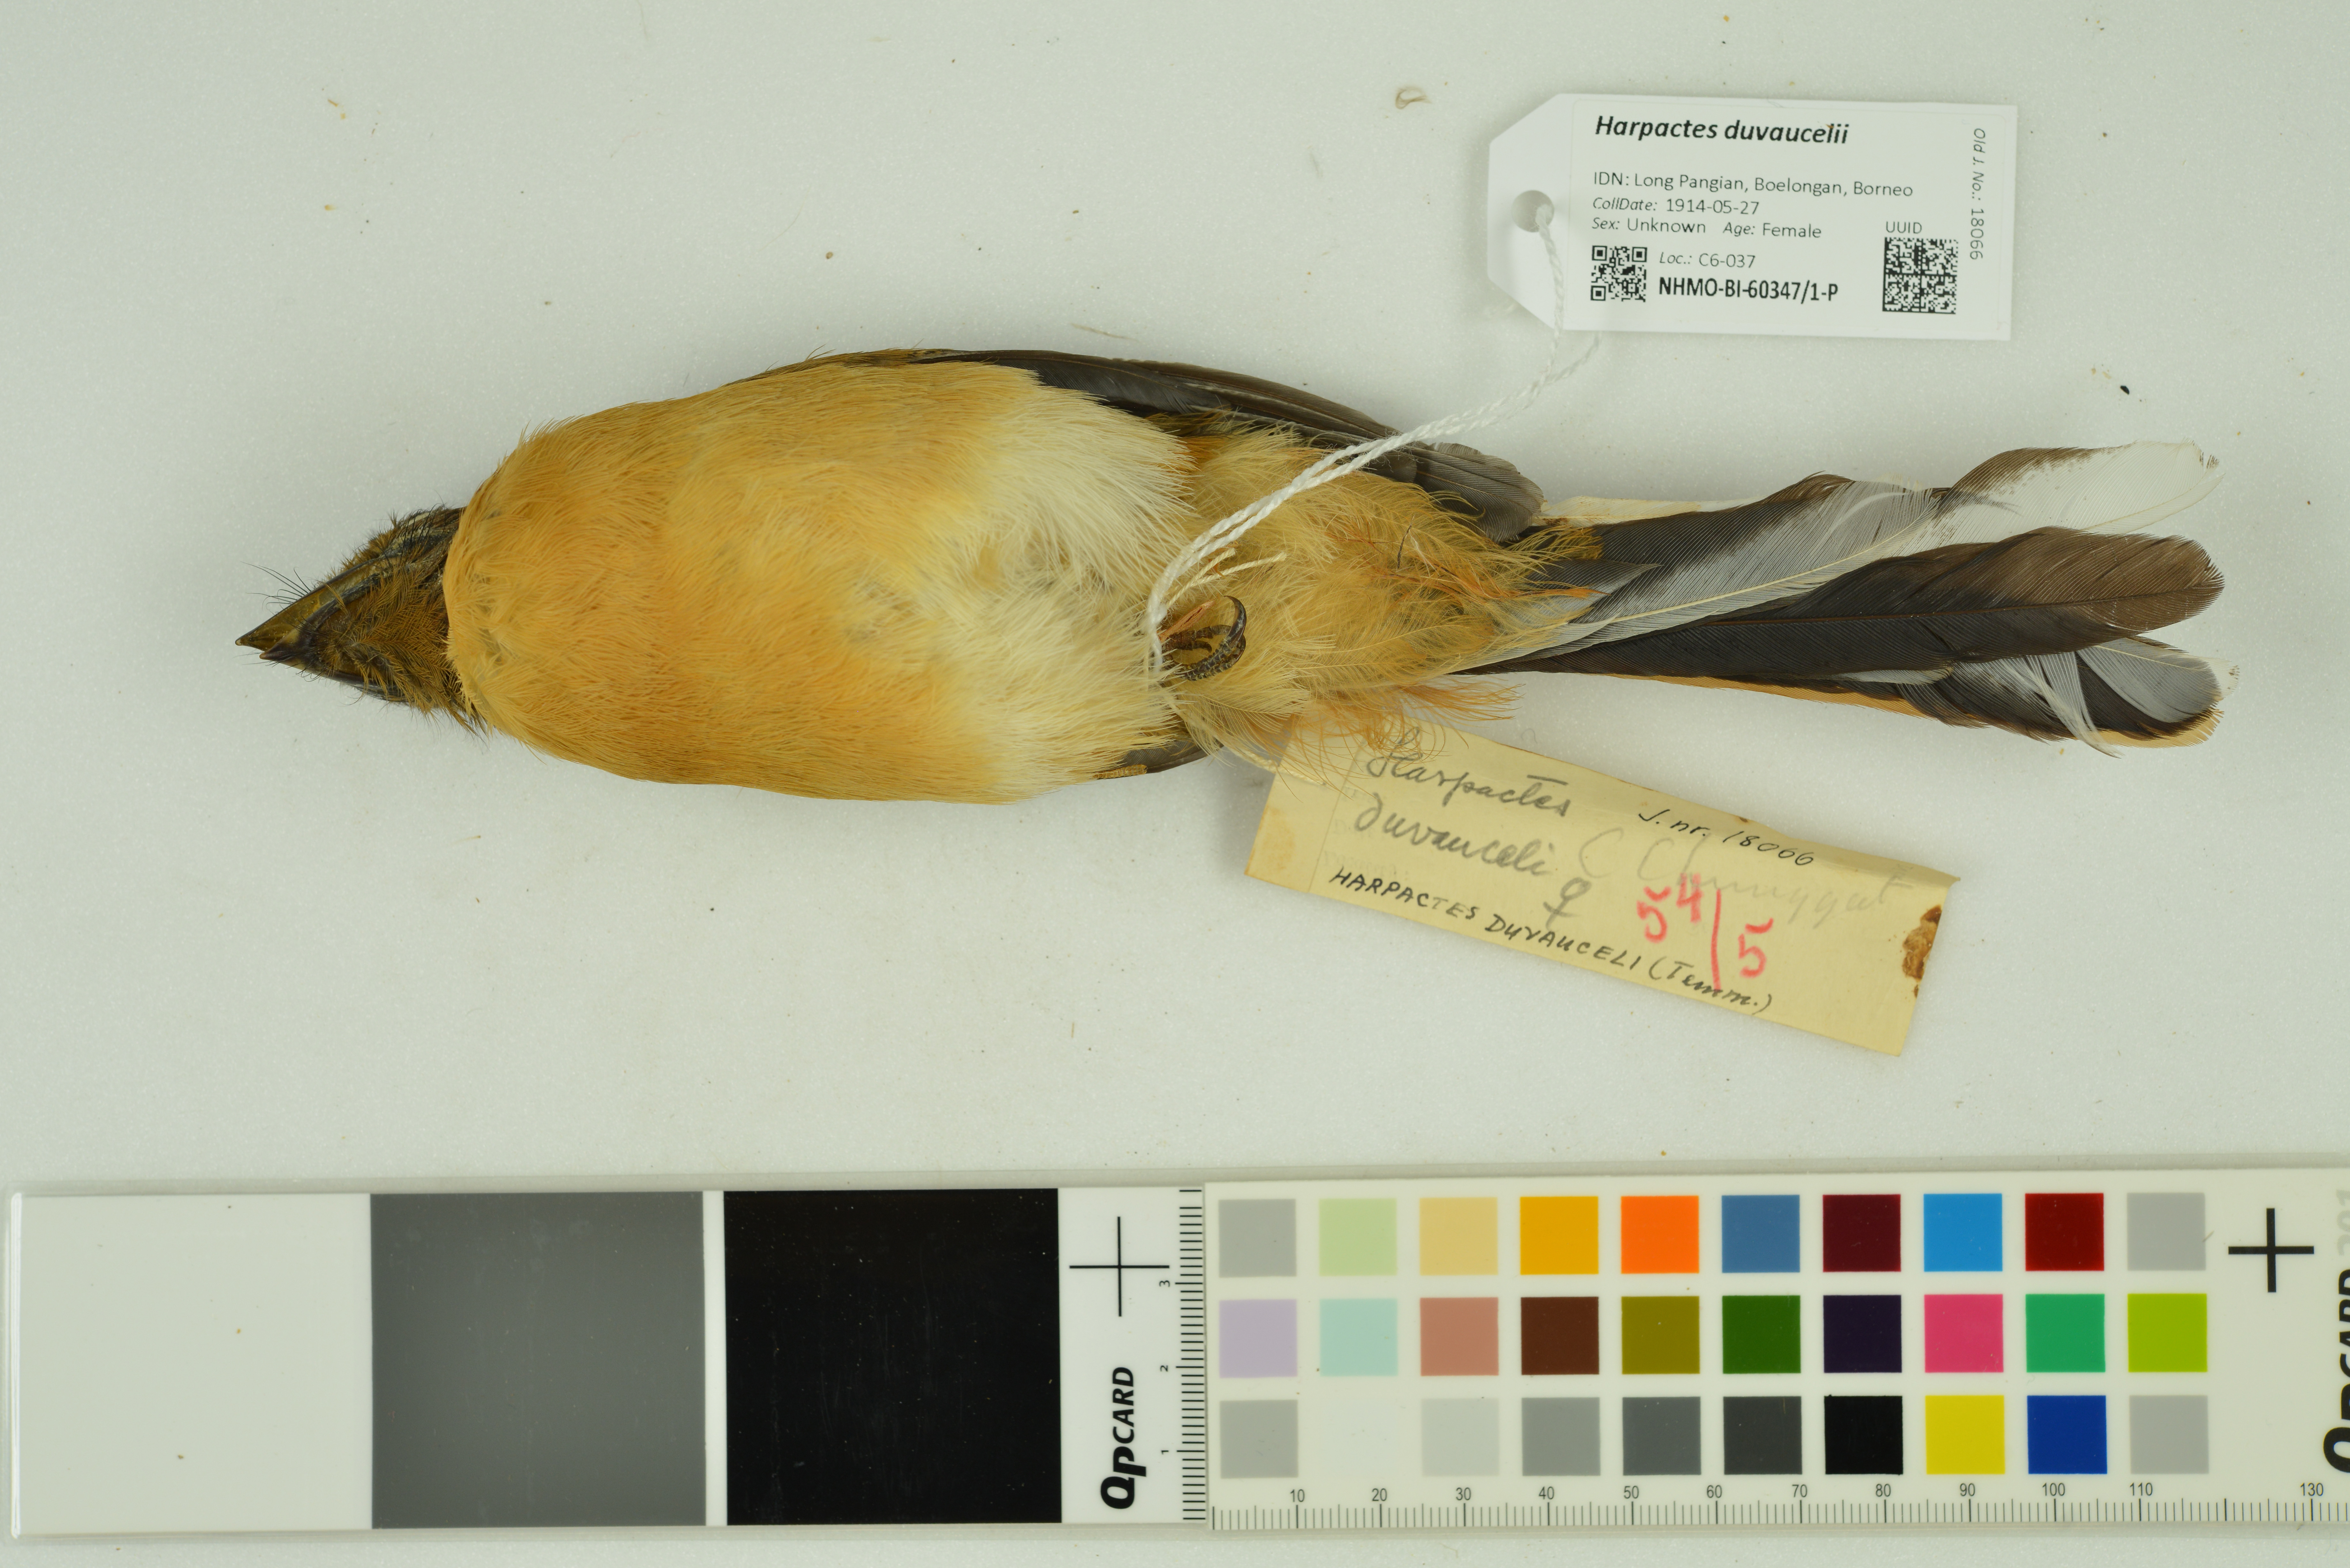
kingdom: Animalia
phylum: Chordata
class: Aves
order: Trogoniformes
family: Trogonidae
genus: Harpactes
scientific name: Harpactes duvaucelii
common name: Scarlet-rumped trogon
